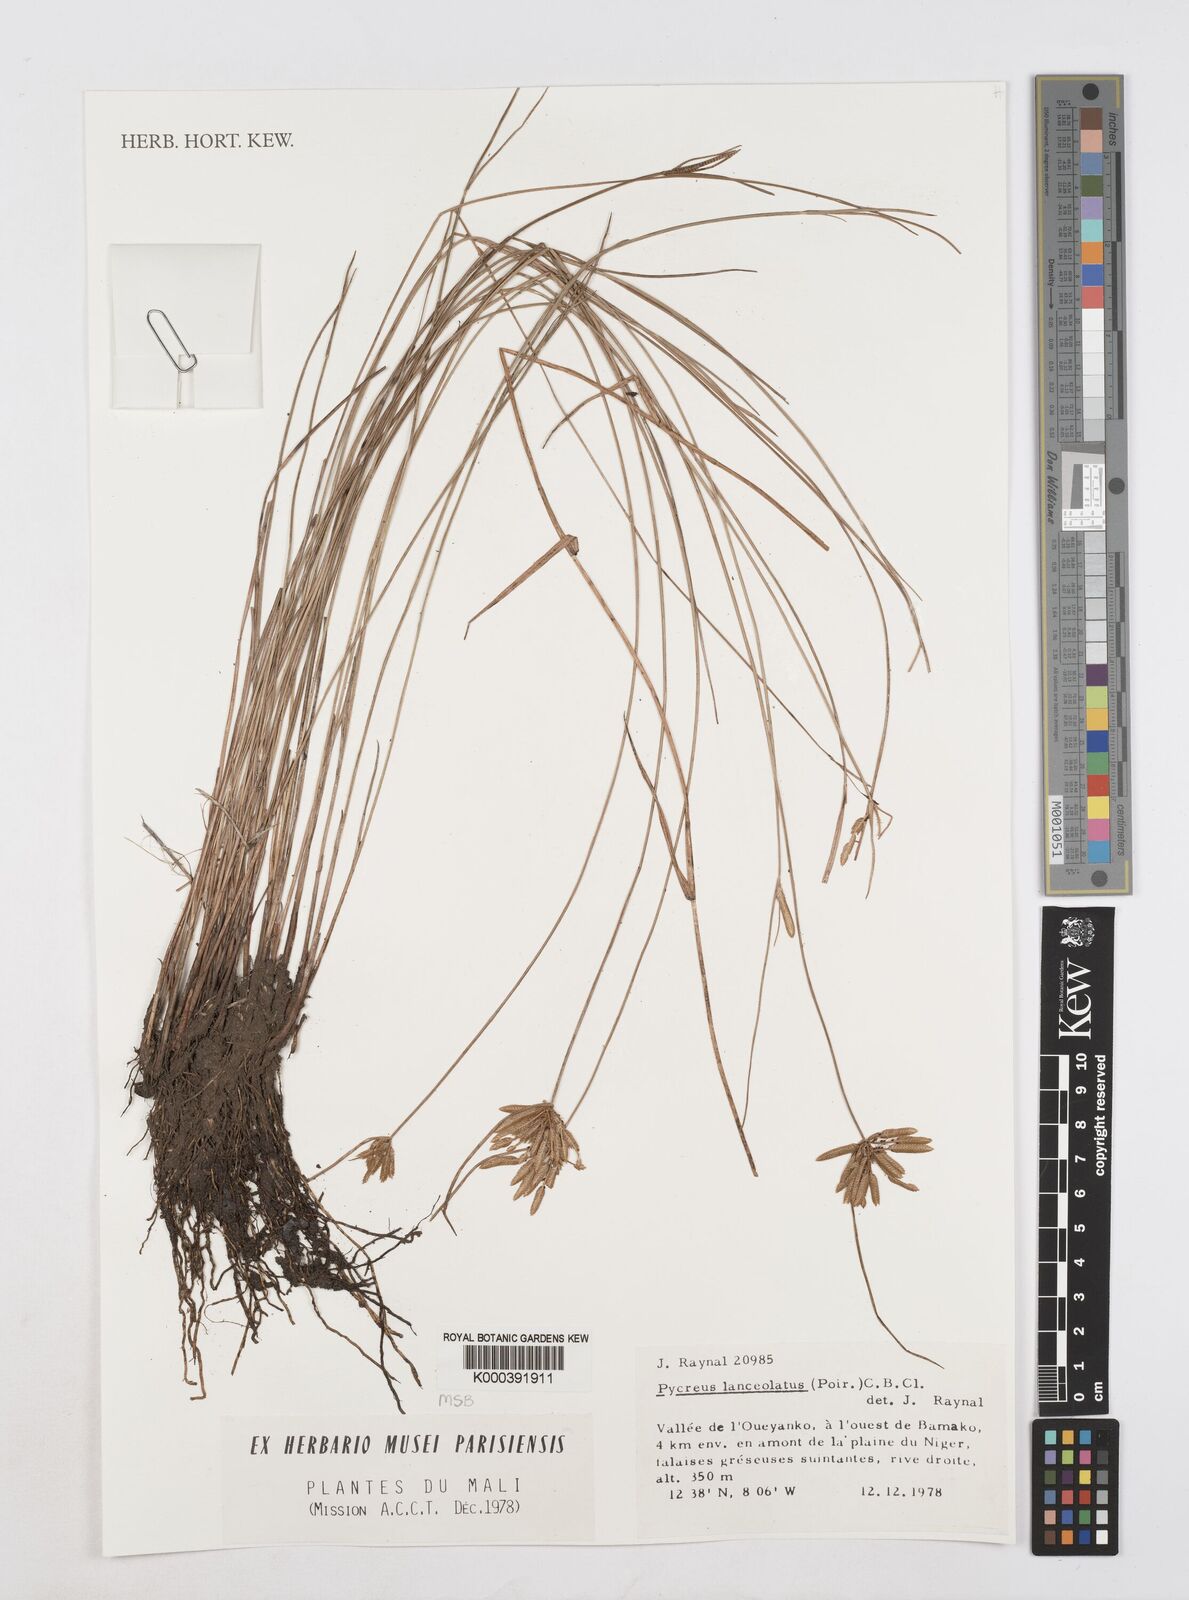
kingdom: Plantae
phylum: Tracheophyta
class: Liliopsida
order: Poales
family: Cyperaceae
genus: Cyperus
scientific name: Cyperus lanceolatus
